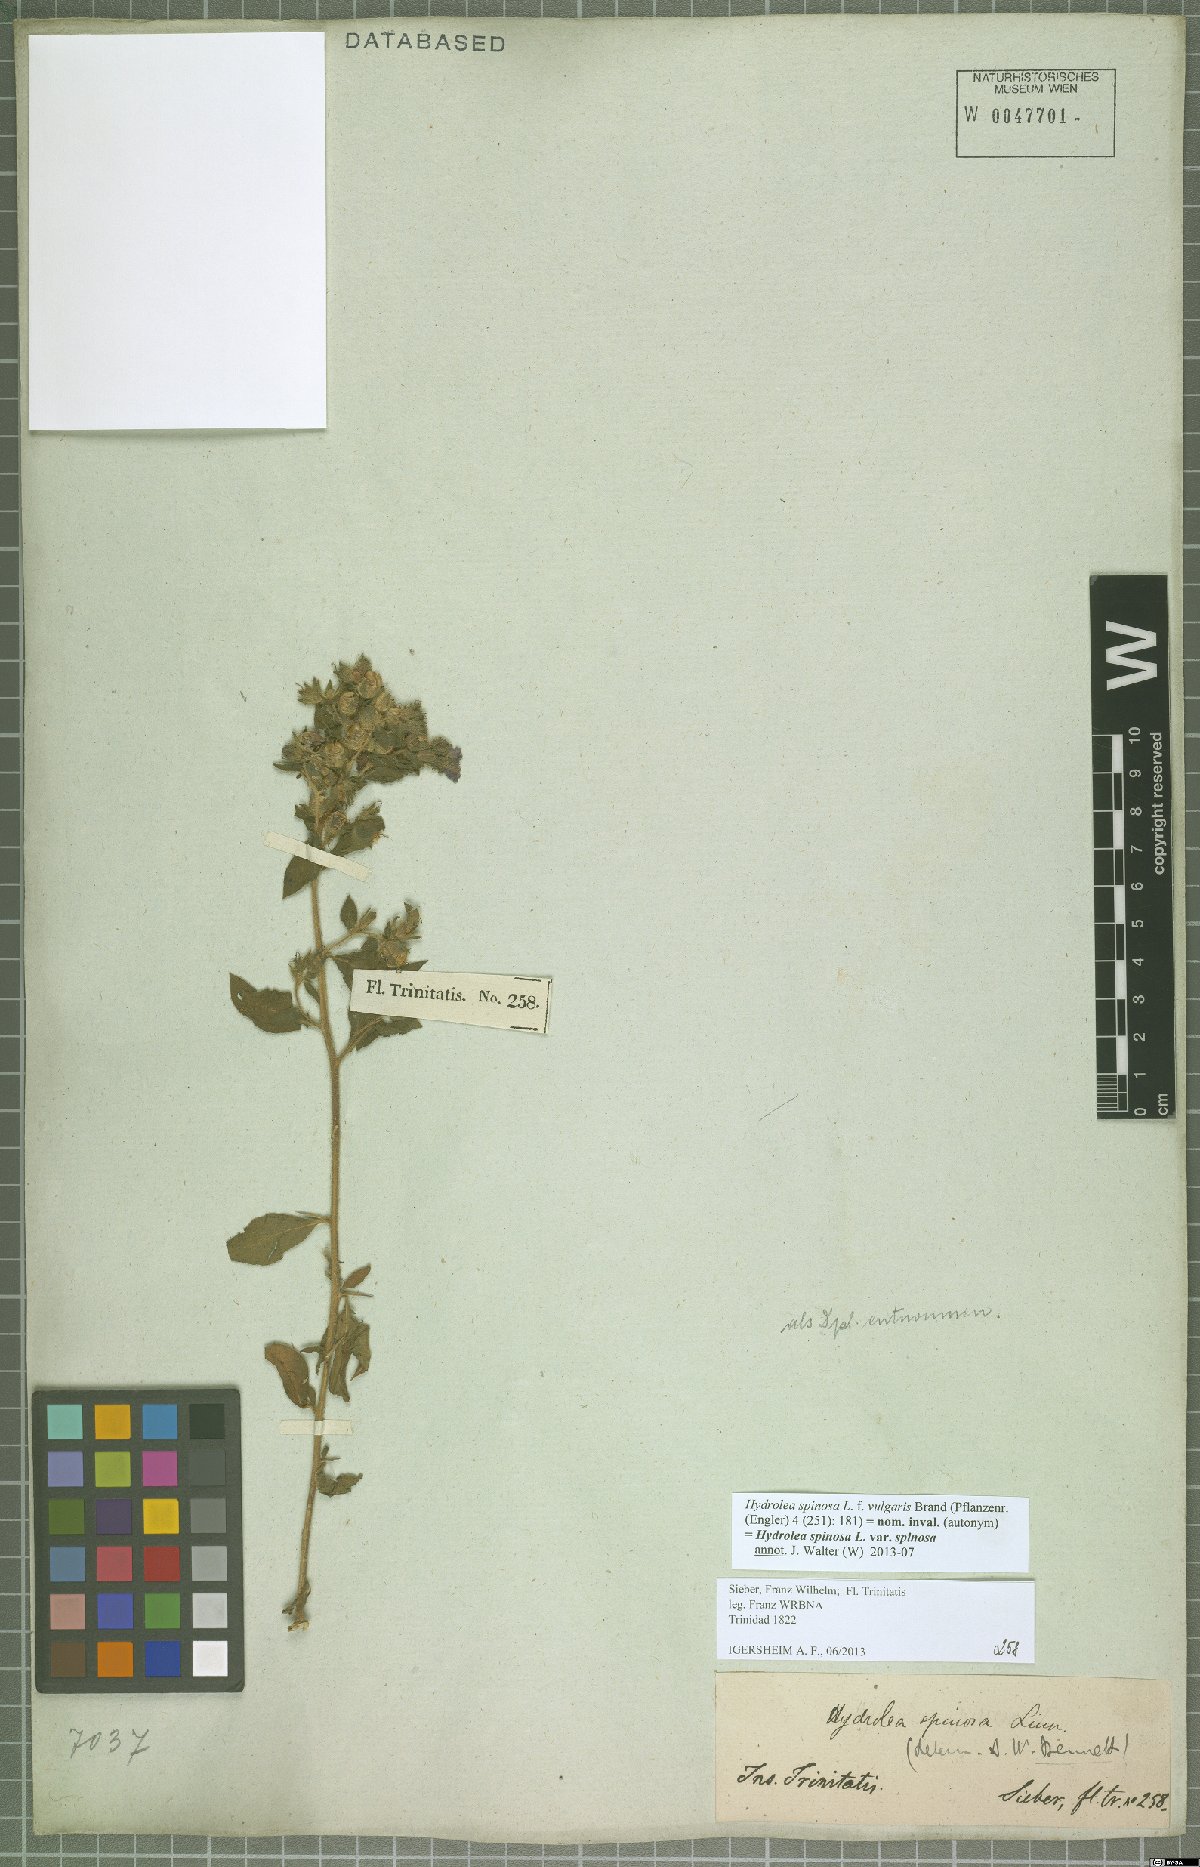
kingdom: Plantae
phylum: Tracheophyta
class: Magnoliopsida
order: Solanales
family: Hydroleaceae
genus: Hydrolea
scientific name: Hydrolea spinosa
